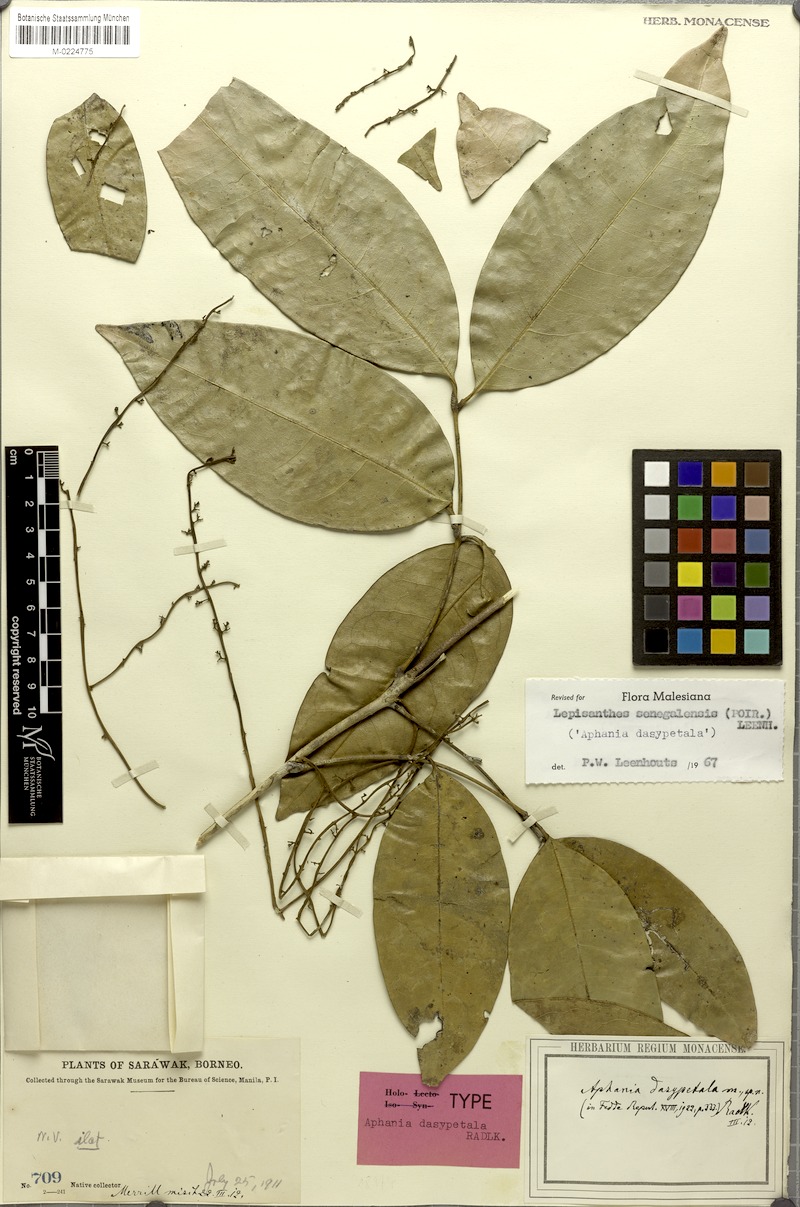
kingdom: Plantae
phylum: Tracheophyta
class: Magnoliopsida
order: Sapindales
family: Sapindaceae
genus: Lepisanthes
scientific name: Lepisanthes senegalensis
